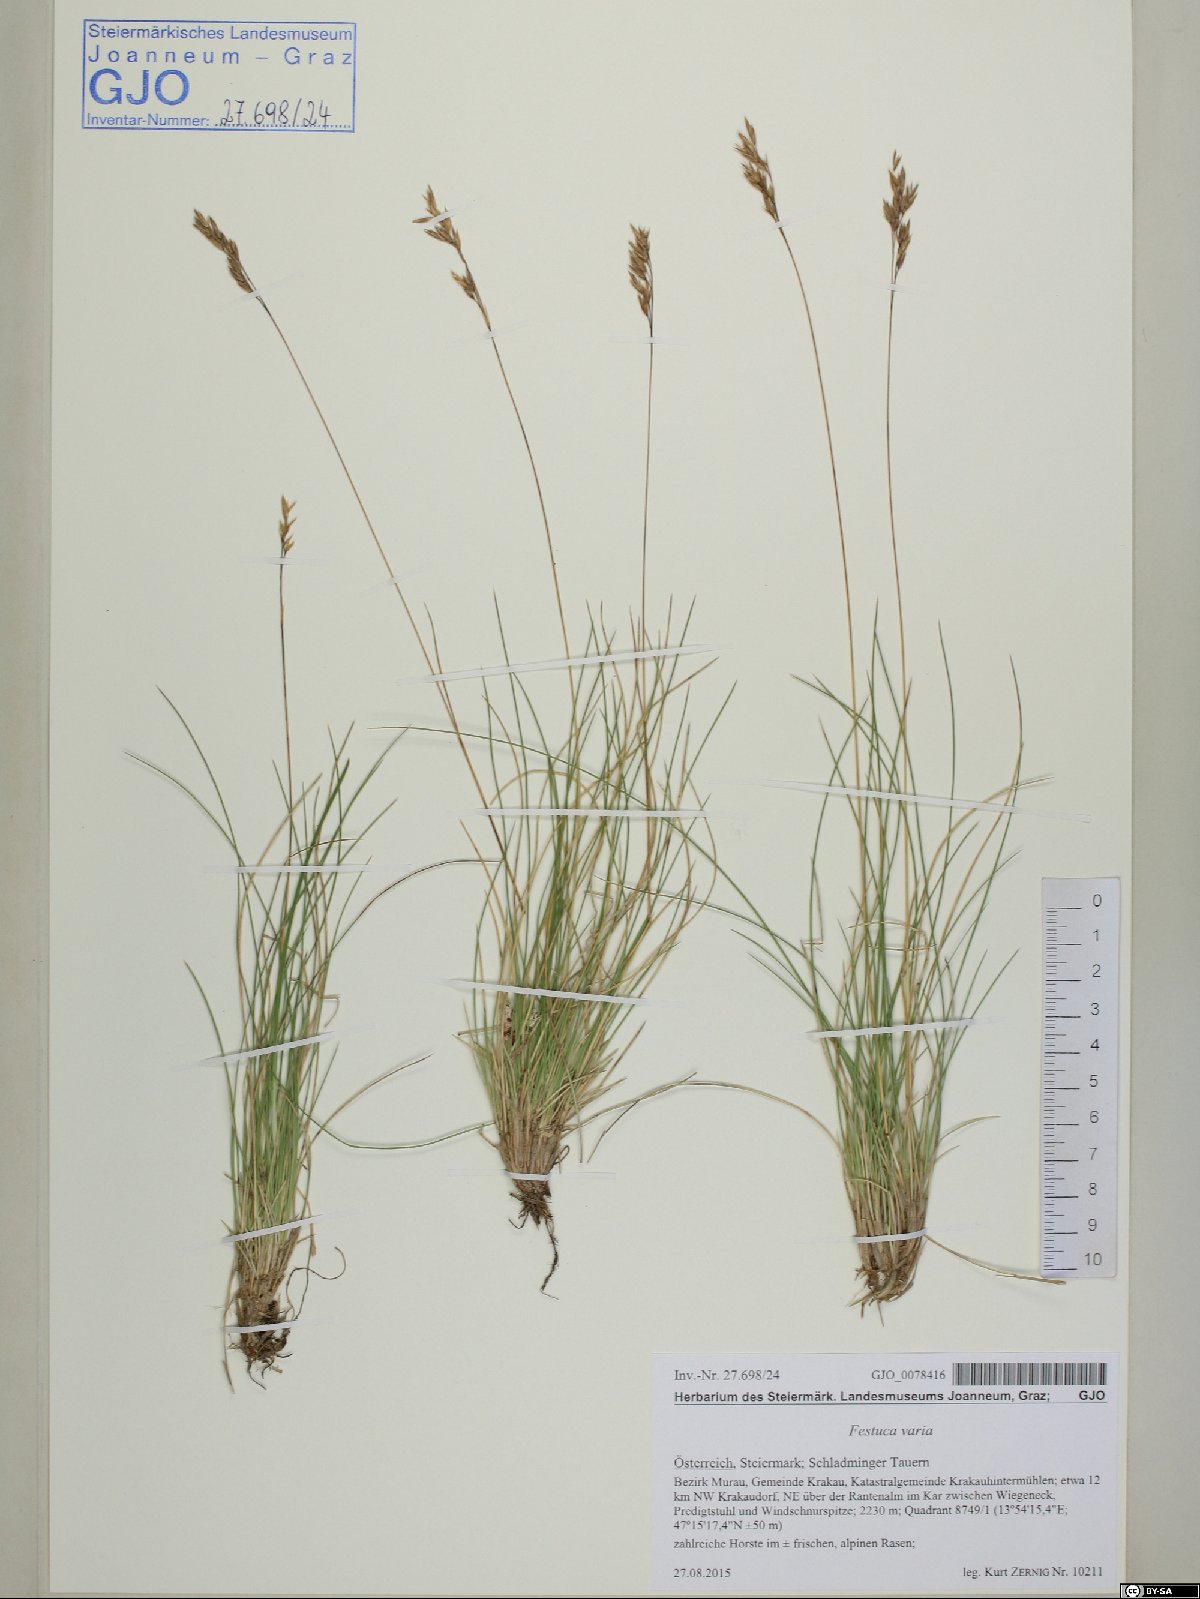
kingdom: Plantae
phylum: Tracheophyta
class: Liliopsida
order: Poales
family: Poaceae
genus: Festuca
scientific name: Festuca varia
